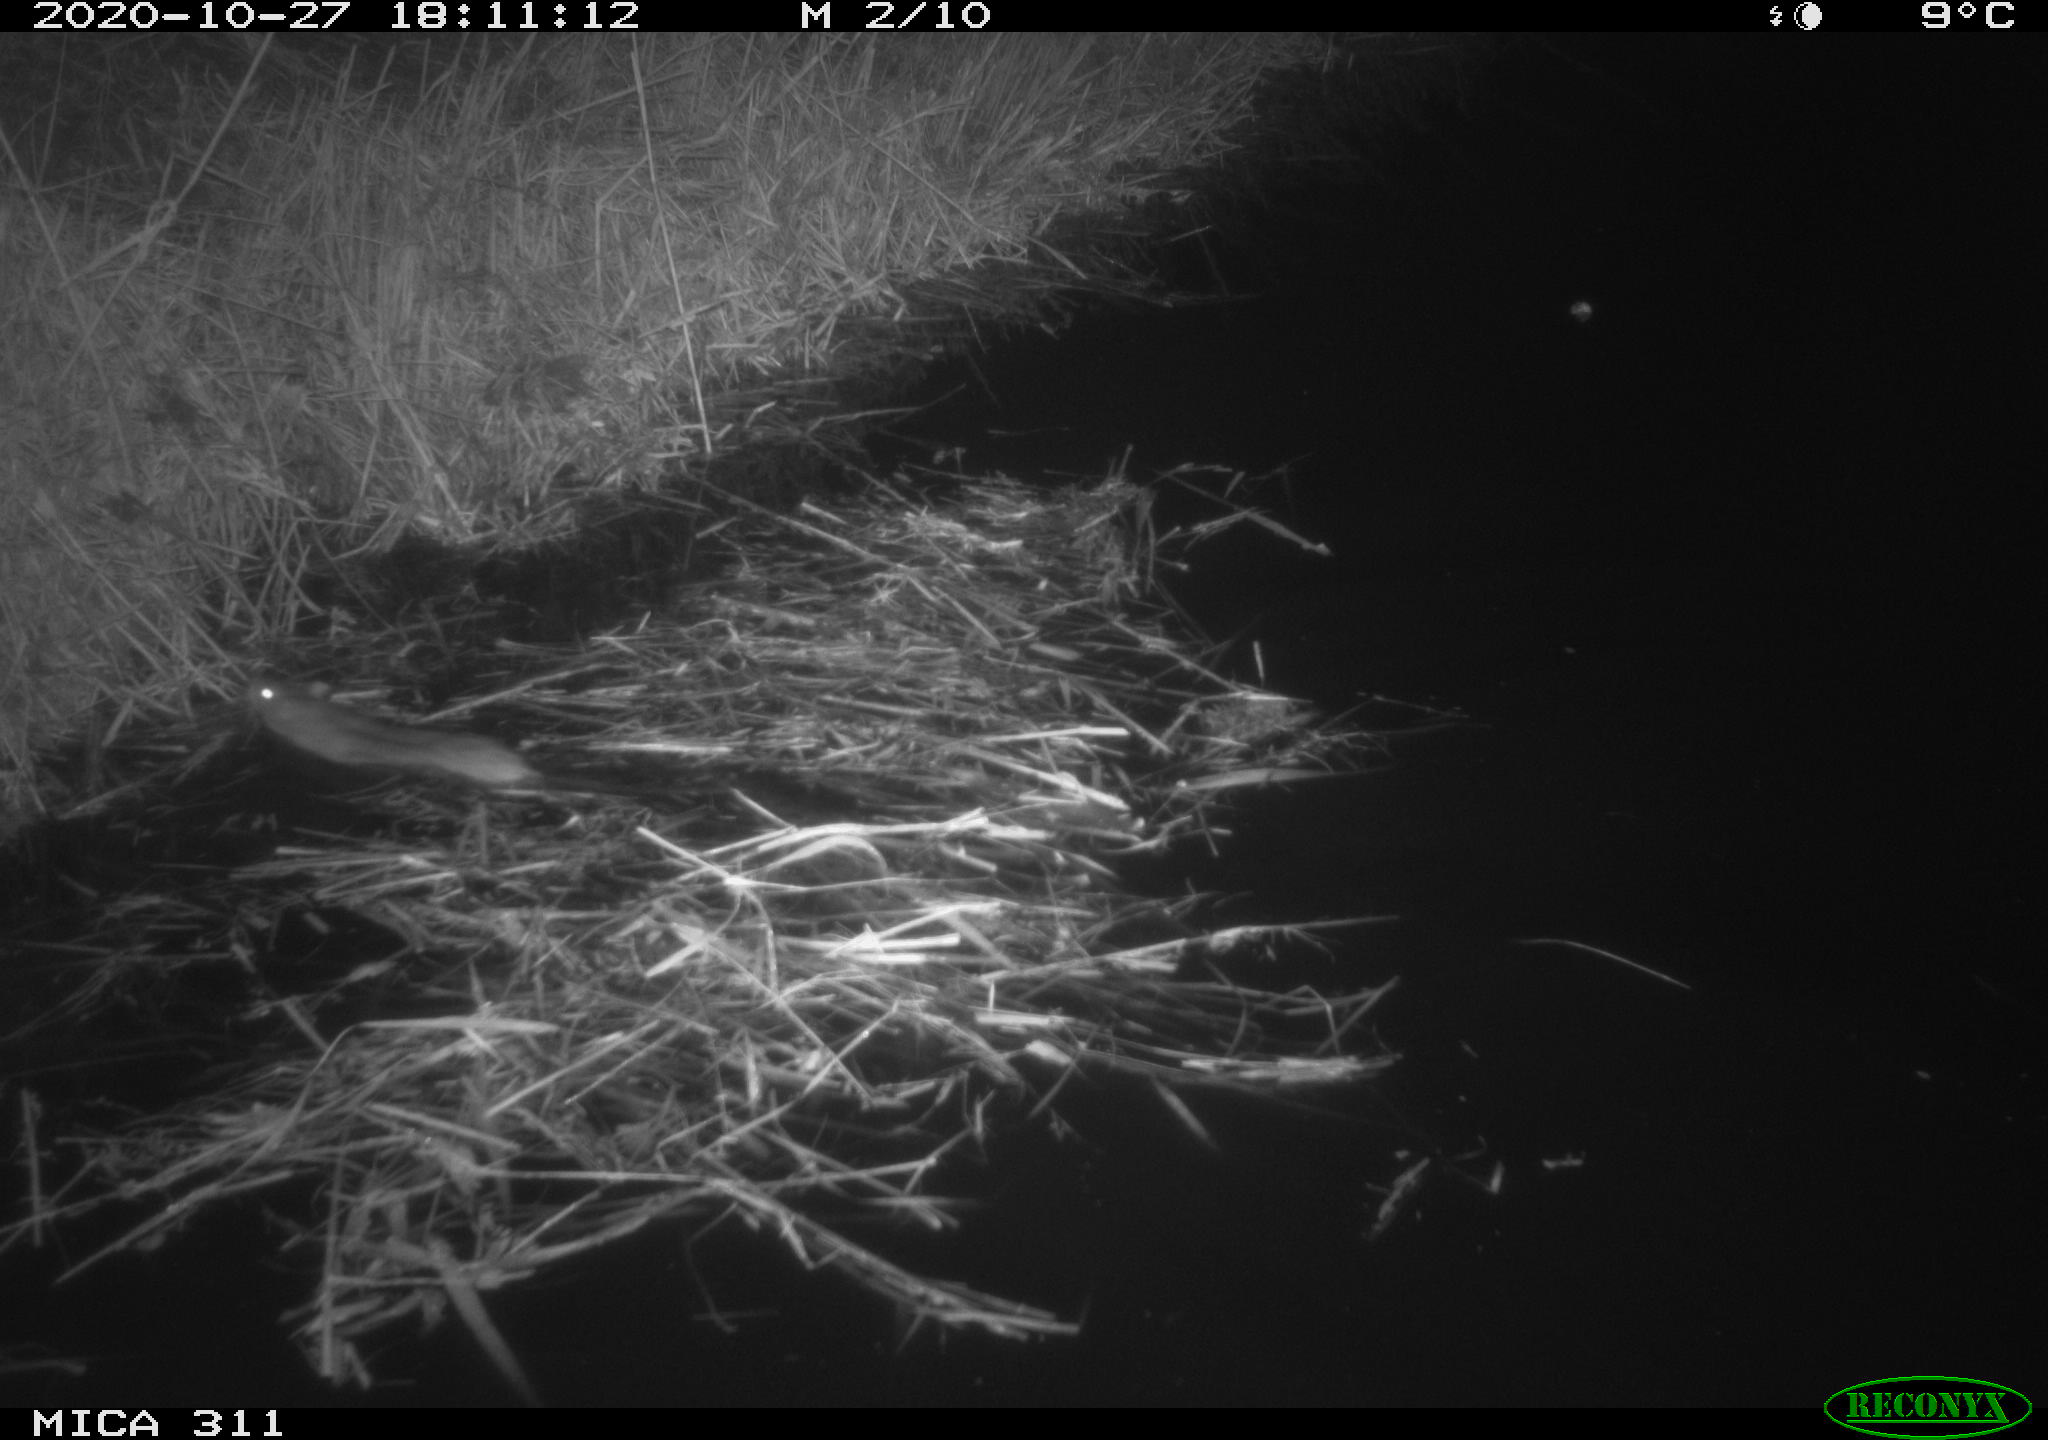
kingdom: Animalia
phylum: Chordata
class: Mammalia
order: Rodentia
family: Muridae
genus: Rattus
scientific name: Rattus norvegicus
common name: Brown rat
